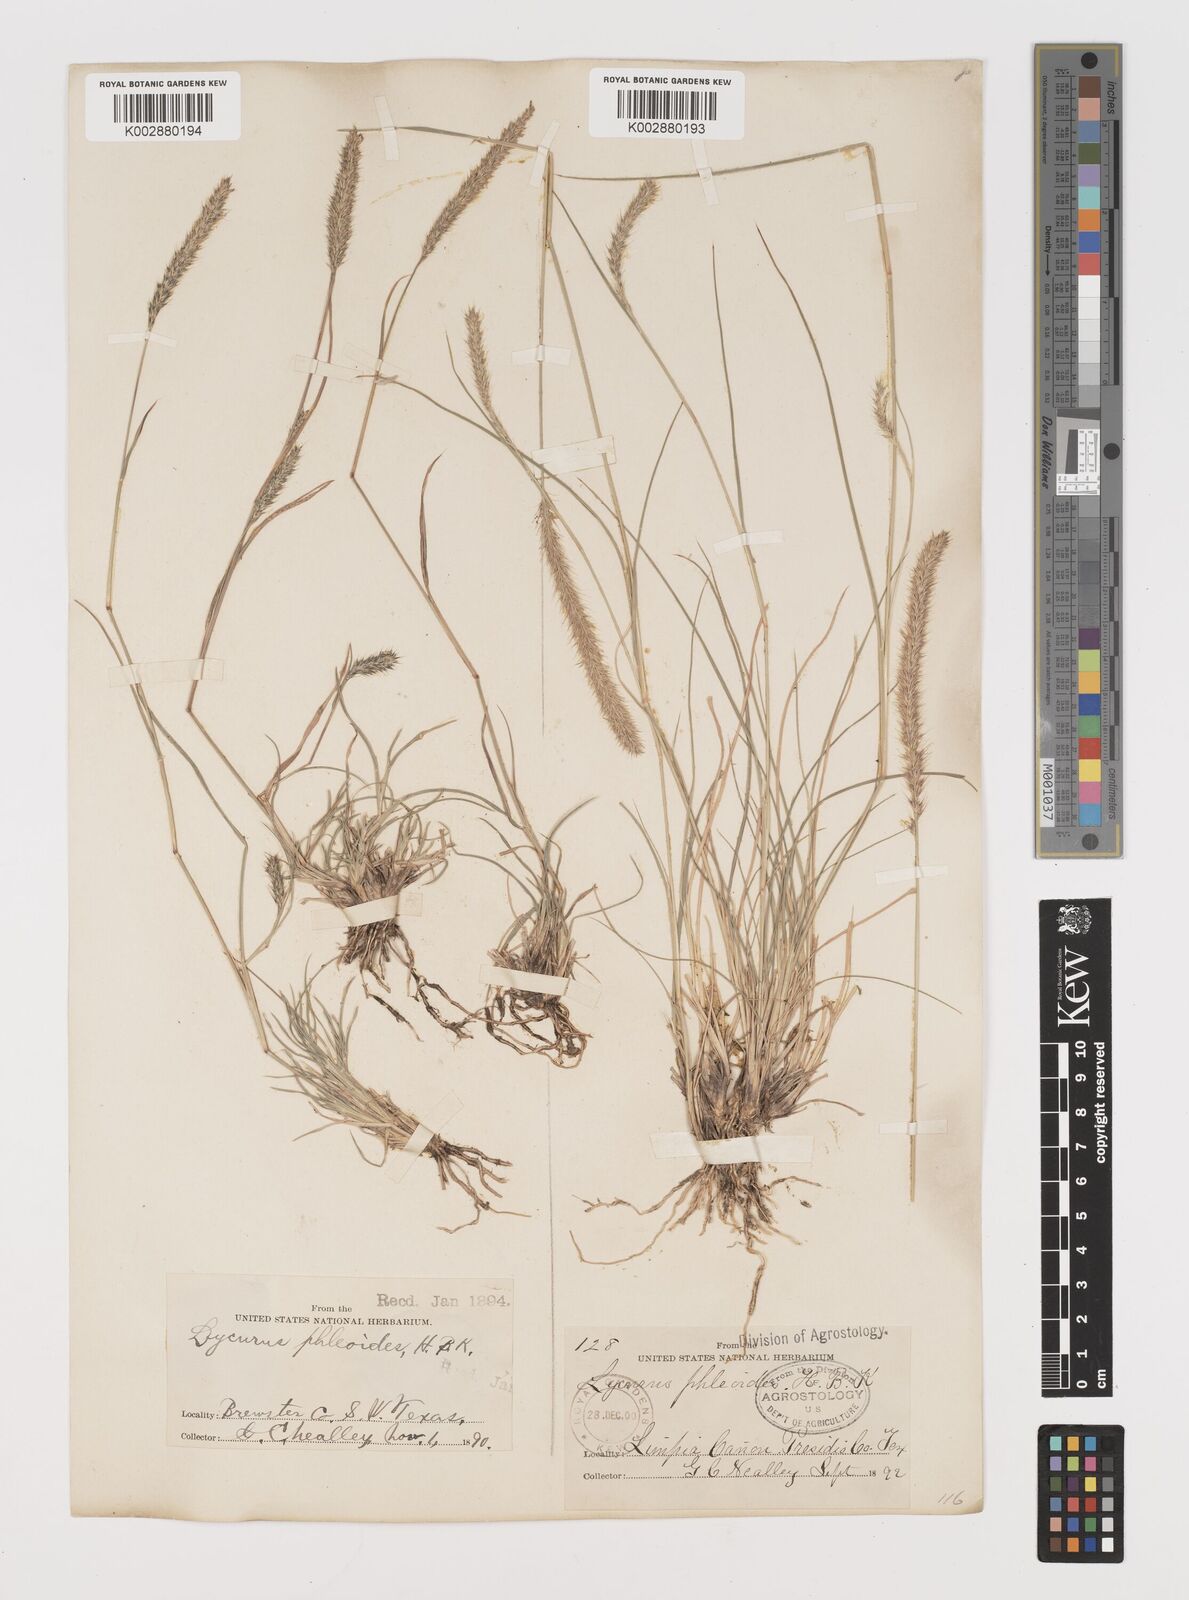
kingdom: Plantae
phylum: Tracheophyta
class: Liliopsida
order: Poales
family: Poaceae
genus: Muhlenbergia
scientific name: Muhlenbergia alopecuroides
